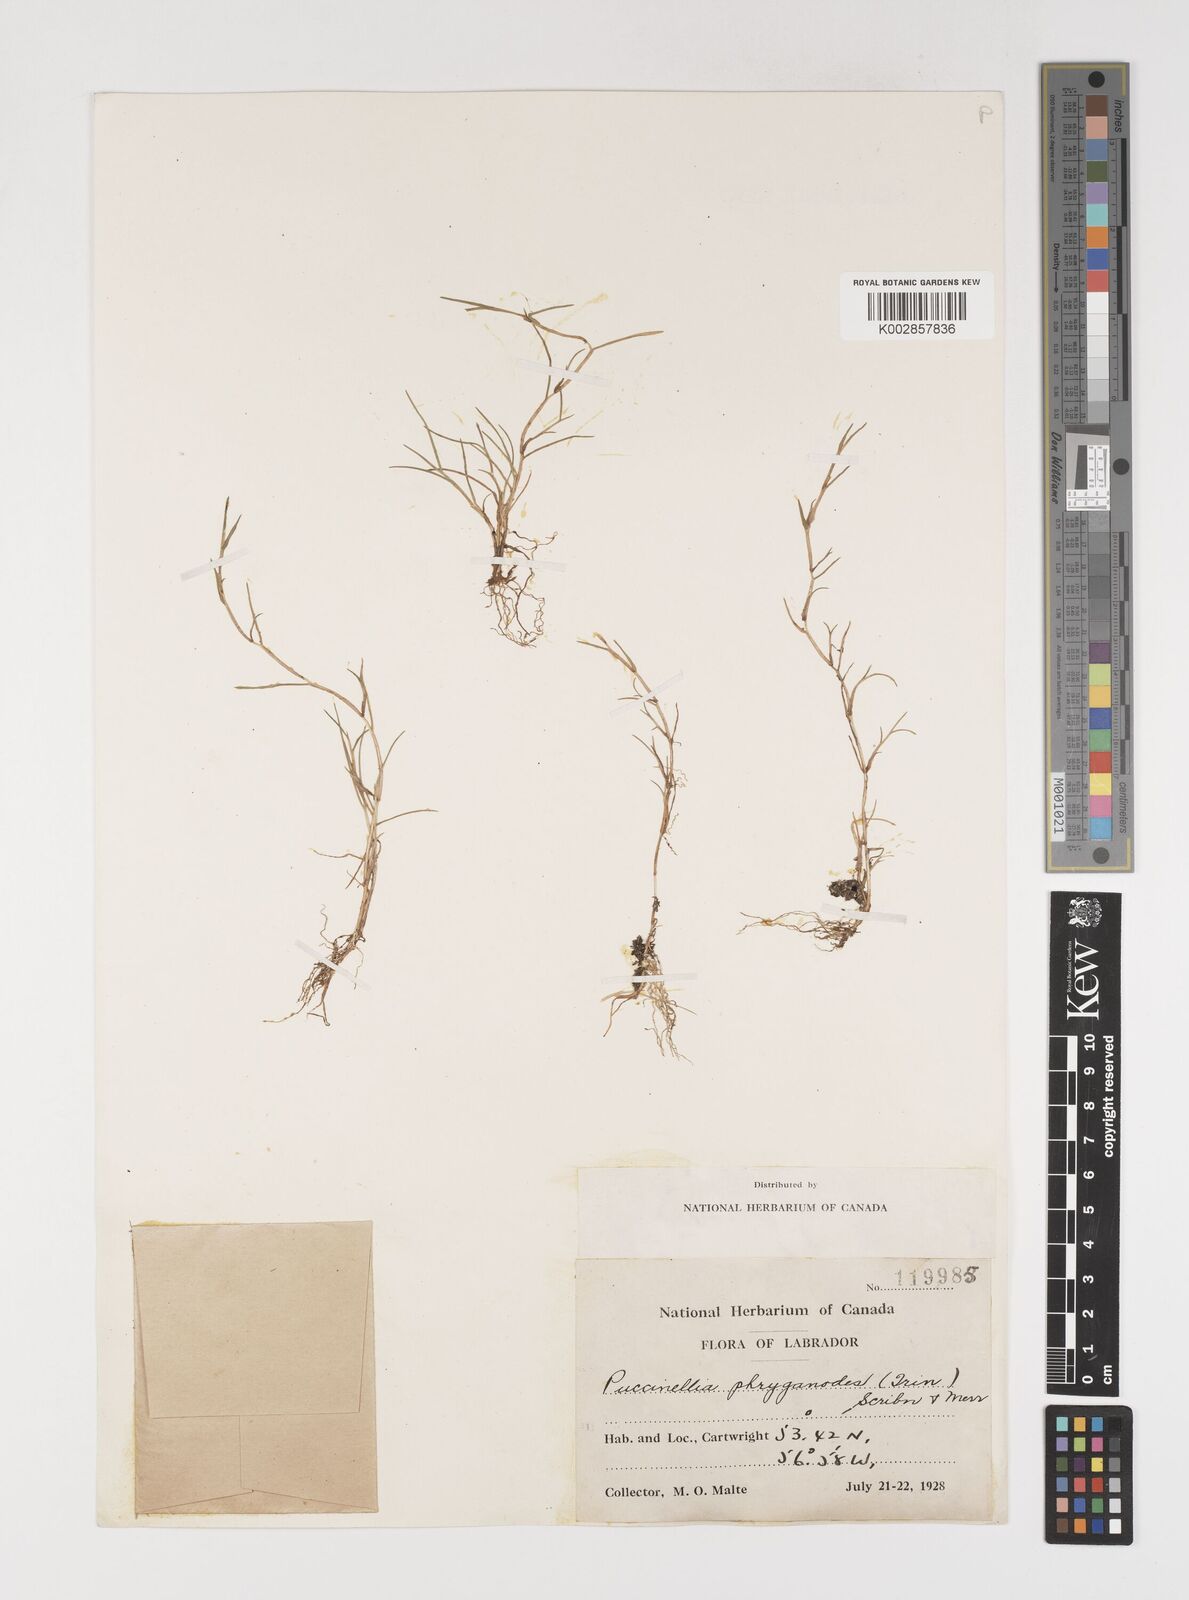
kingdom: Plantae
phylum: Tracheophyta
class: Liliopsida
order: Poales
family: Poaceae
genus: Puccinellia
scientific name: Puccinellia phryganodes
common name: Creeping alkaligrass
